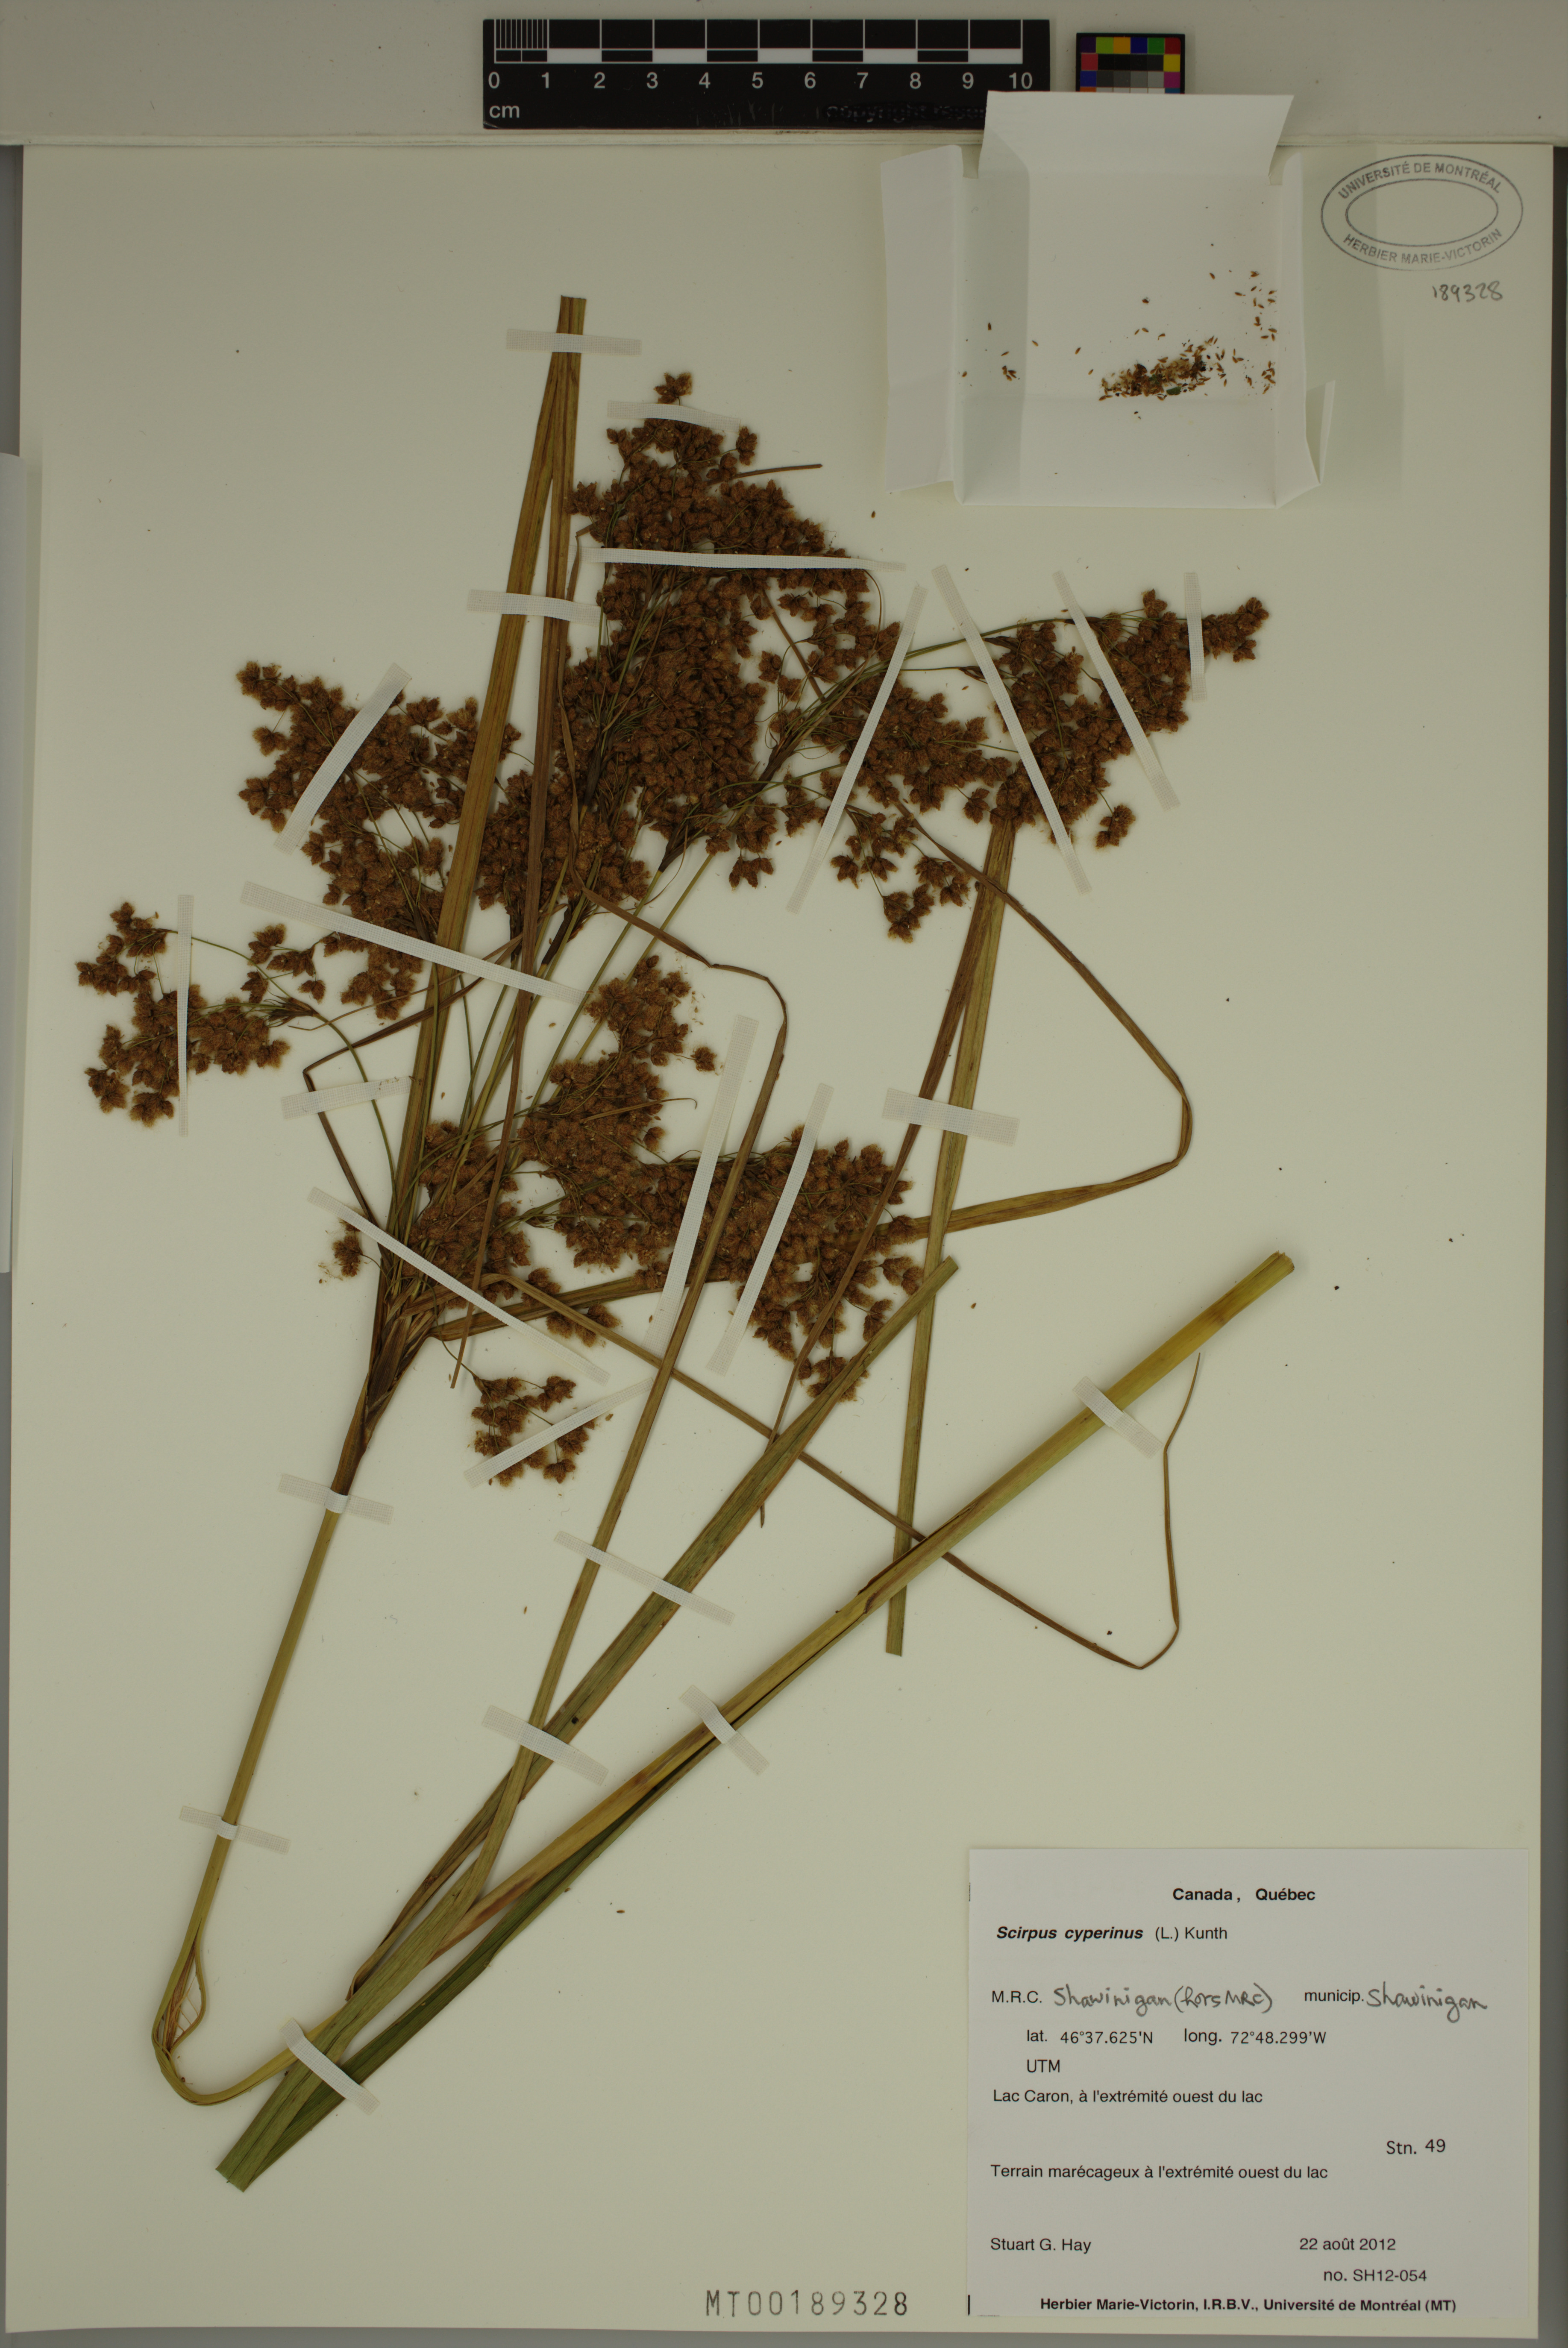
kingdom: Plantae
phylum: Tracheophyta
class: Liliopsida
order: Poales
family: Cyperaceae
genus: Scirpus
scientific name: Scirpus cyperinus
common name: Black-sheathed bulrush
